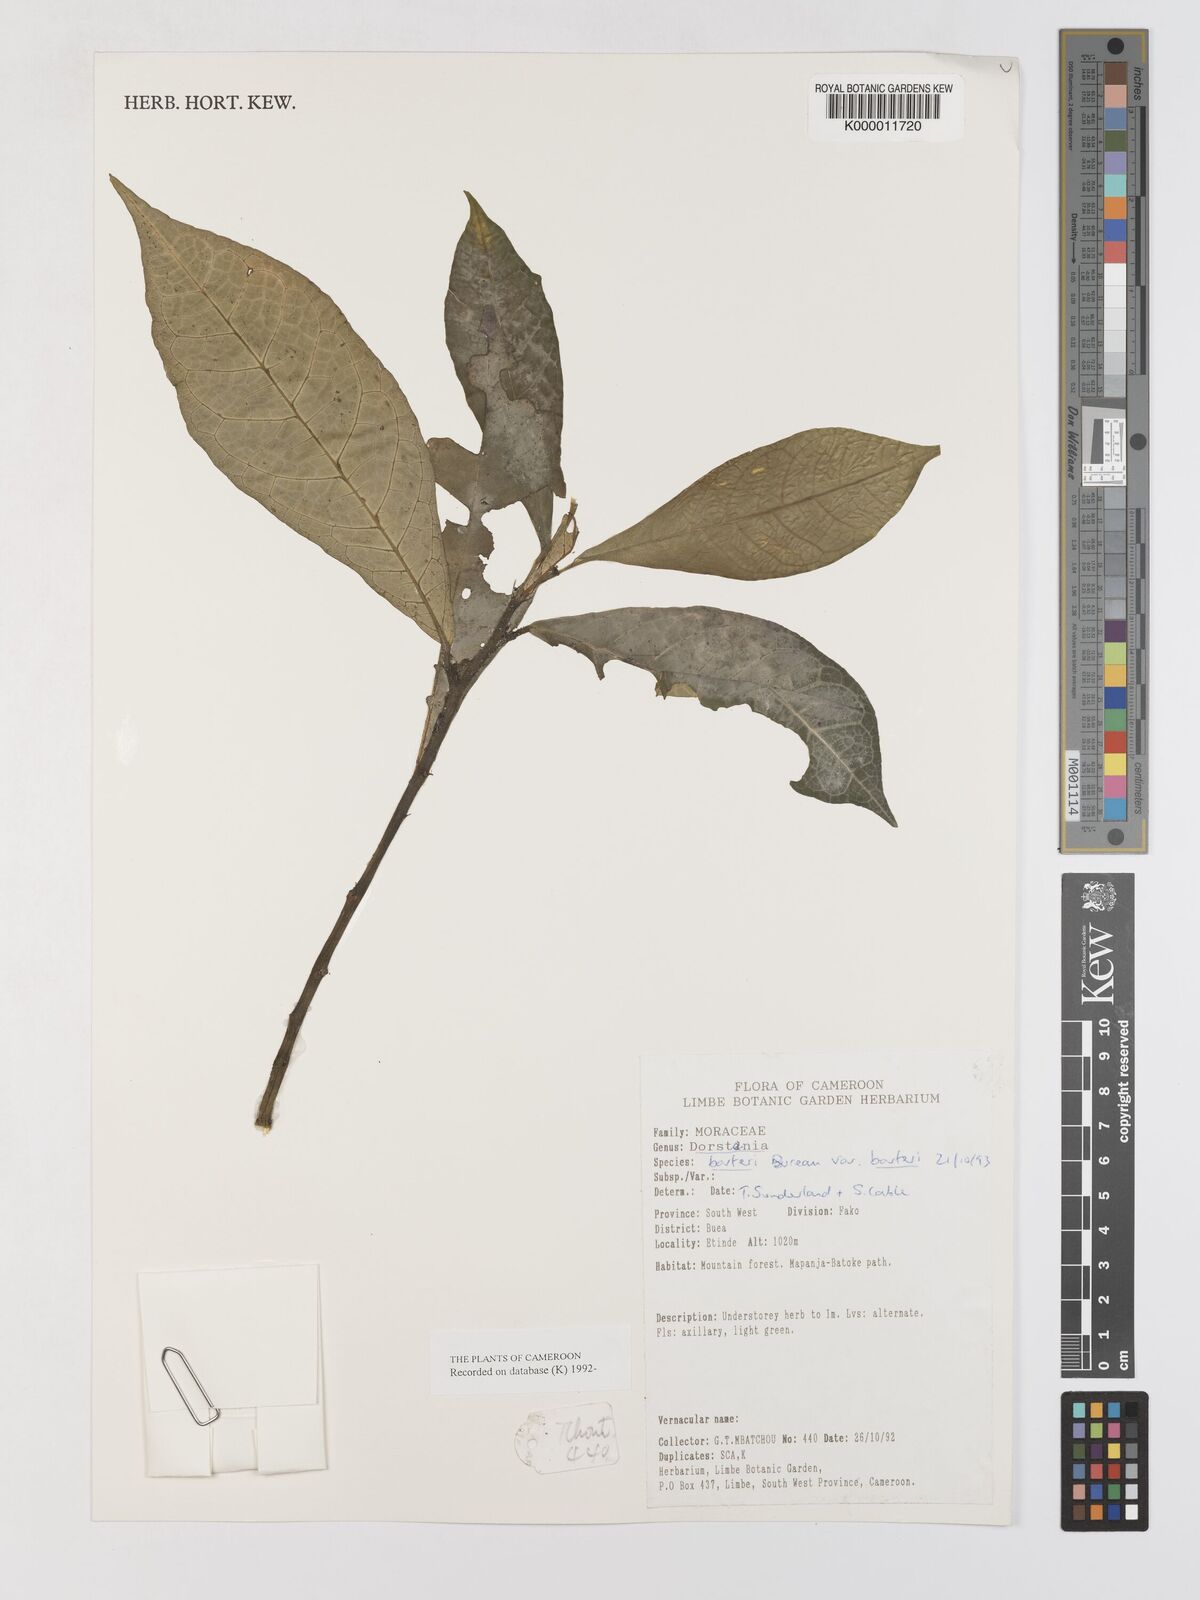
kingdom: Plantae
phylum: Tracheophyta
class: Magnoliopsida
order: Rosales
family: Moraceae
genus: Dorstenia
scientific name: Dorstenia barteri
